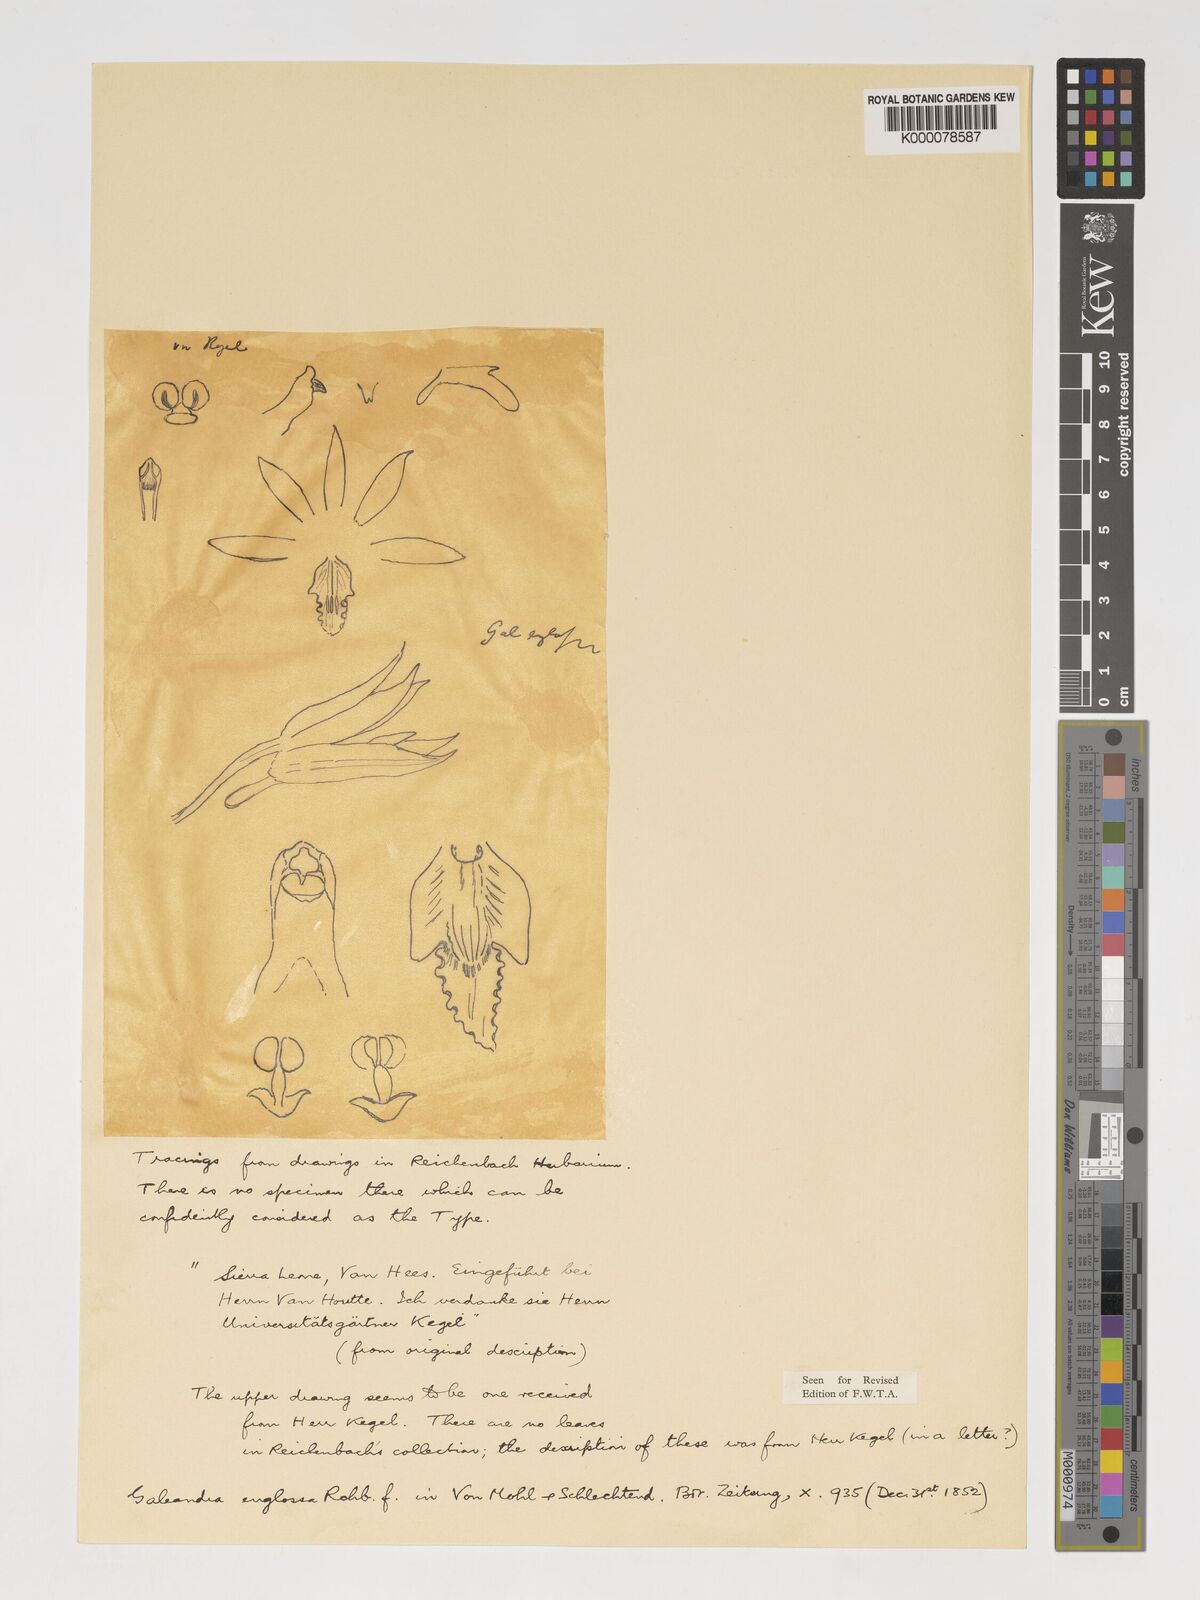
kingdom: Plantae
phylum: Tracheophyta
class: Liliopsida
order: Asparagales
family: Orchidaceae
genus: Eulophia
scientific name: Eulophia
